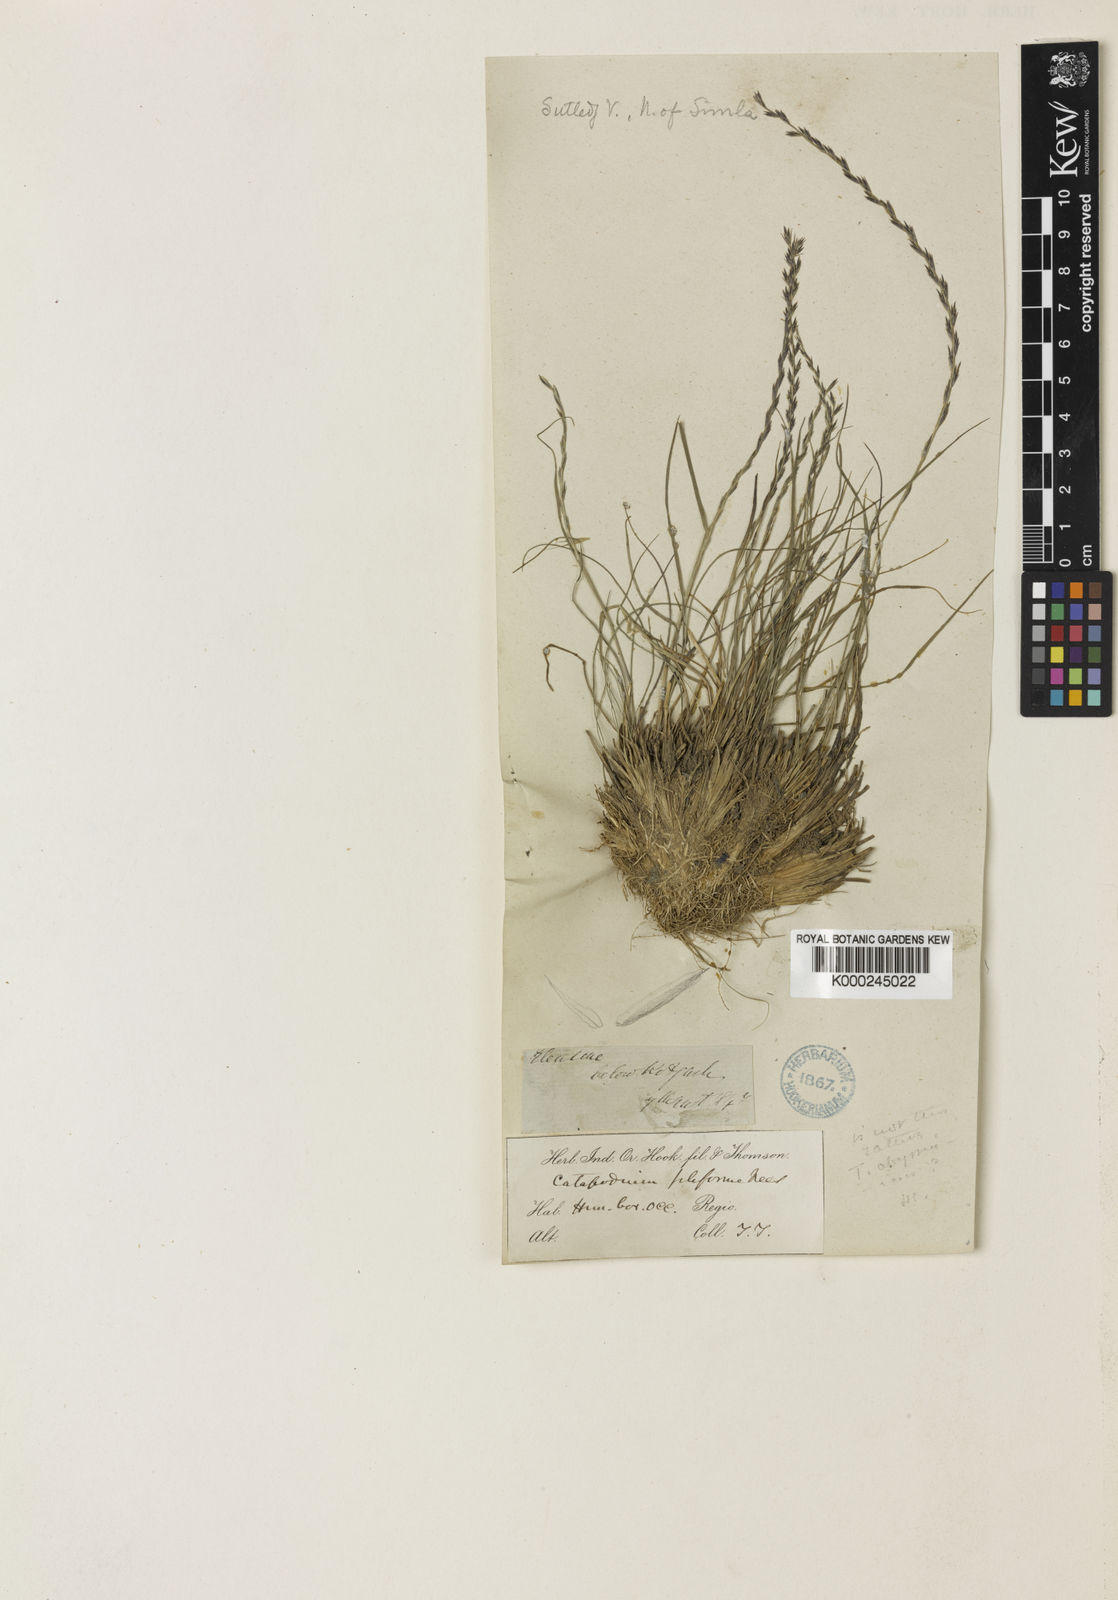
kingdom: Plantae
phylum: Tracheophyta
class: Liliopsida
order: Poales
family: Poaceae
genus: Tripogon
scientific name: Tripogon purpurascens
